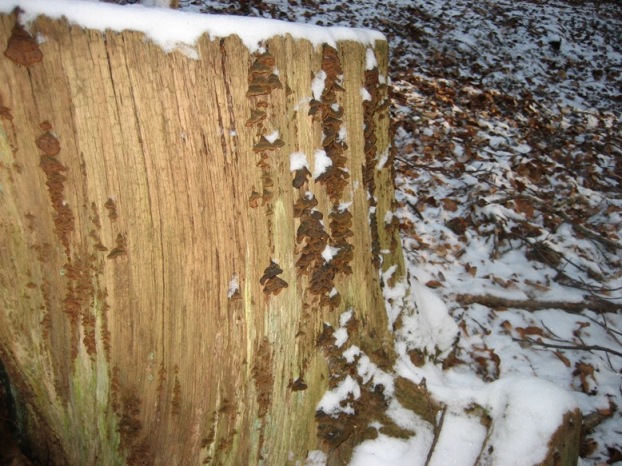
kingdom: Fungi
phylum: Basidiomycota
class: Agaricomycetes
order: Hymenochaetales
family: Hymenochaetaceae
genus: Hymenochaete
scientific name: Hymenochaete rubiginosa
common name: stiv ruslædersvamp
